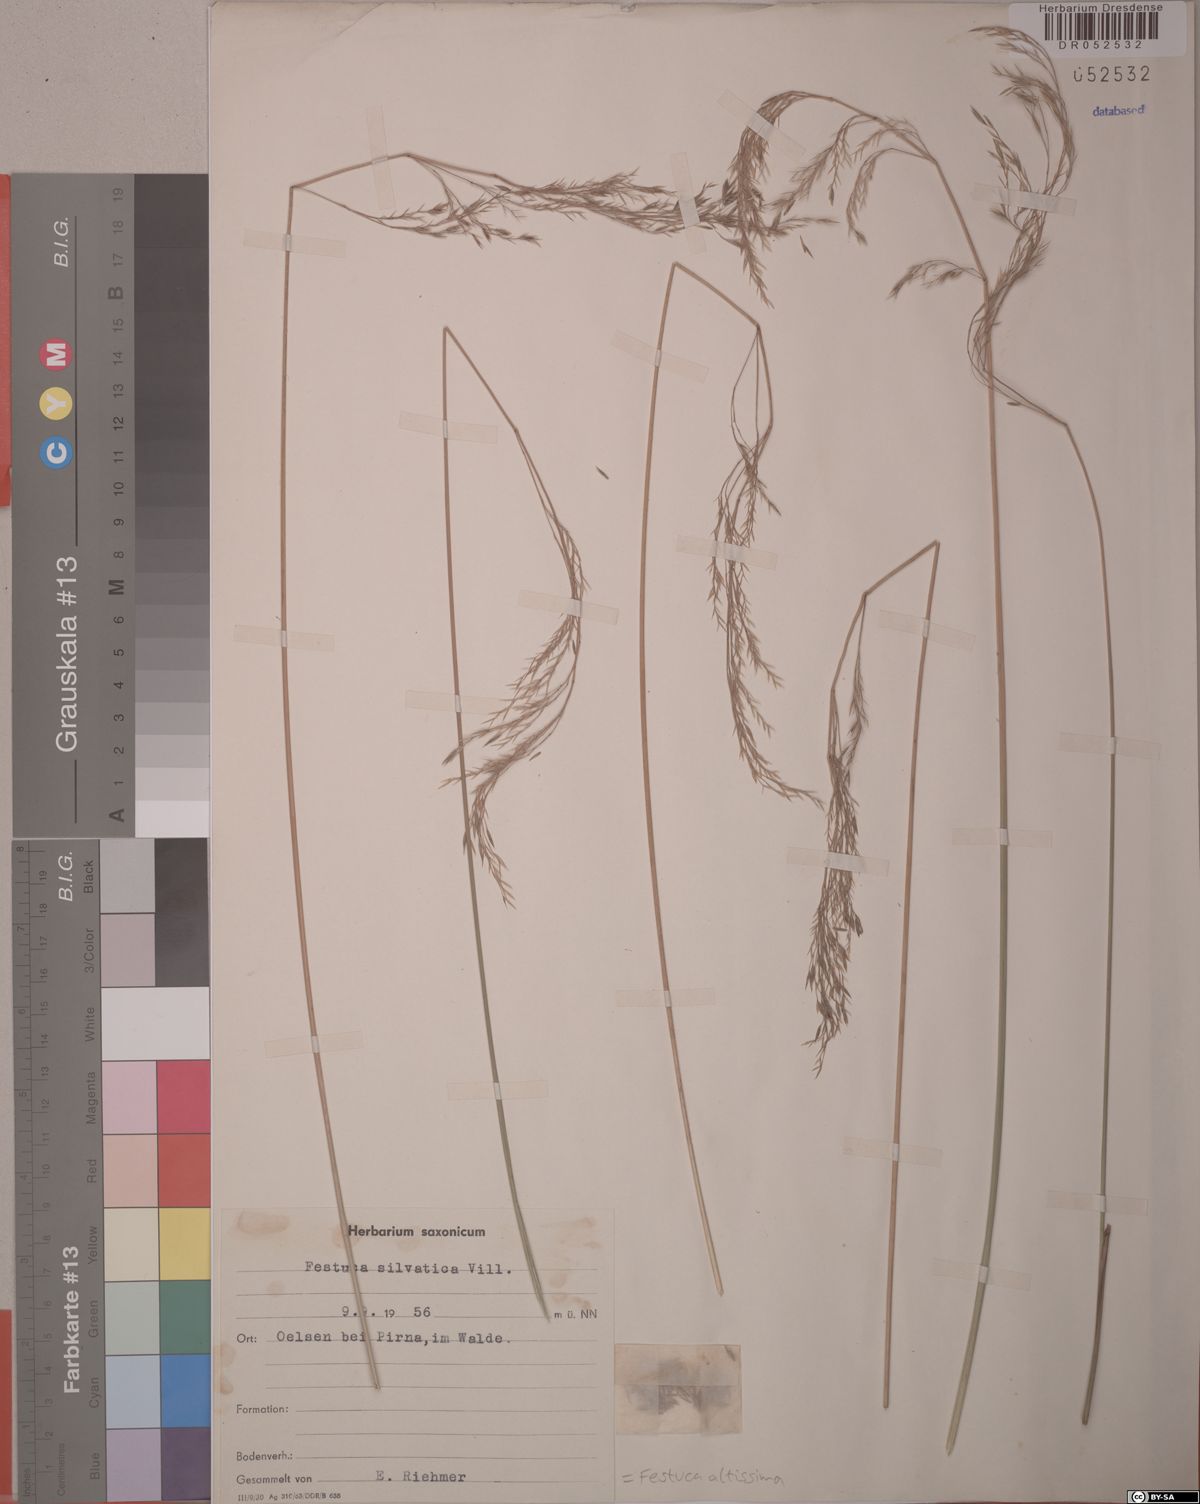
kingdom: Plantae
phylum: Tracheophyta
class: Liliopsida
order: Poales
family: Poaceae
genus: Festuca
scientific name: Festuca altissima
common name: Wood fescue
